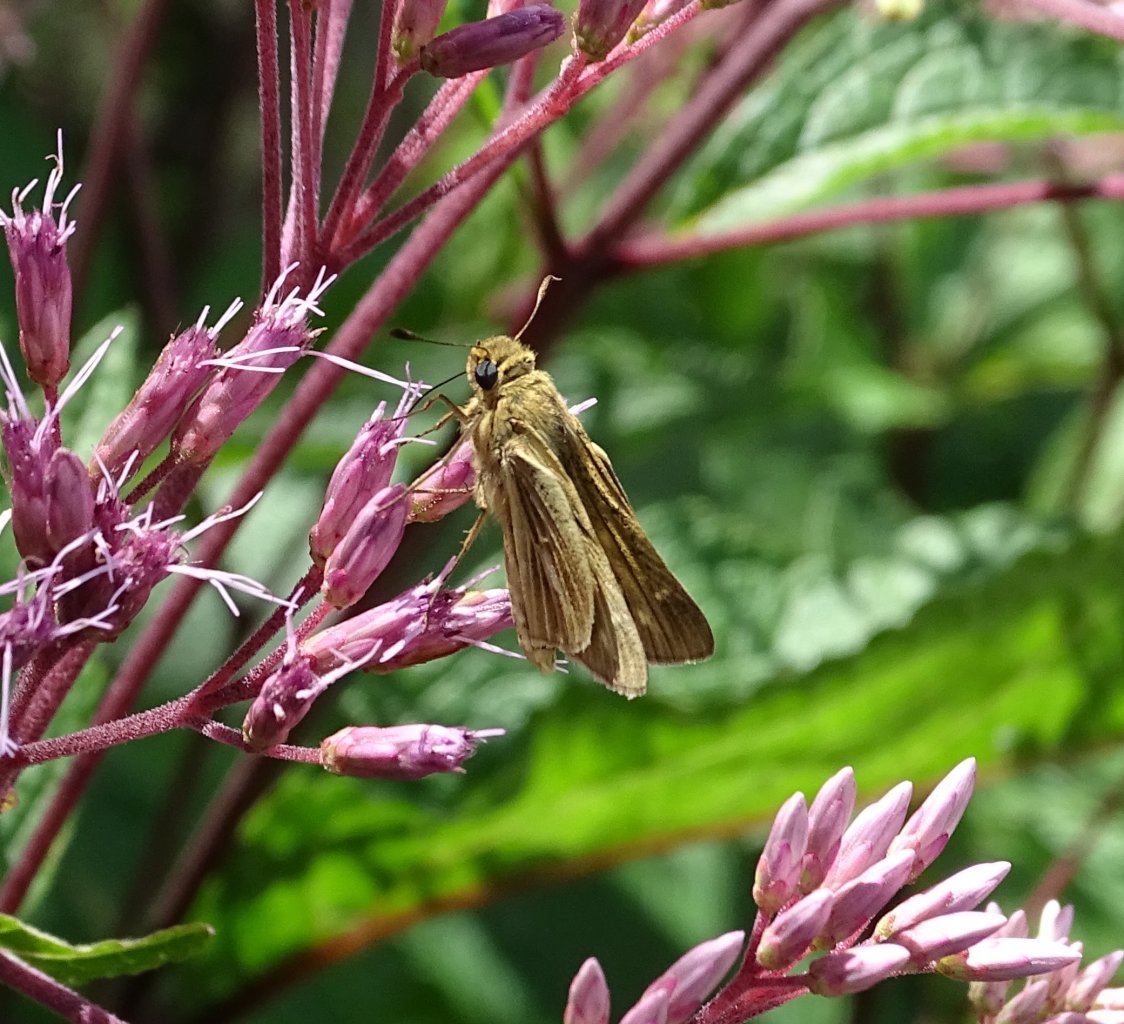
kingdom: Animalia
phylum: Arthropoda
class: Insecta
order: Lepidoptera
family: Hesperiidae
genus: Panoquina
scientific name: Panoquina panoquin
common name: Salt Marsh Skipper
